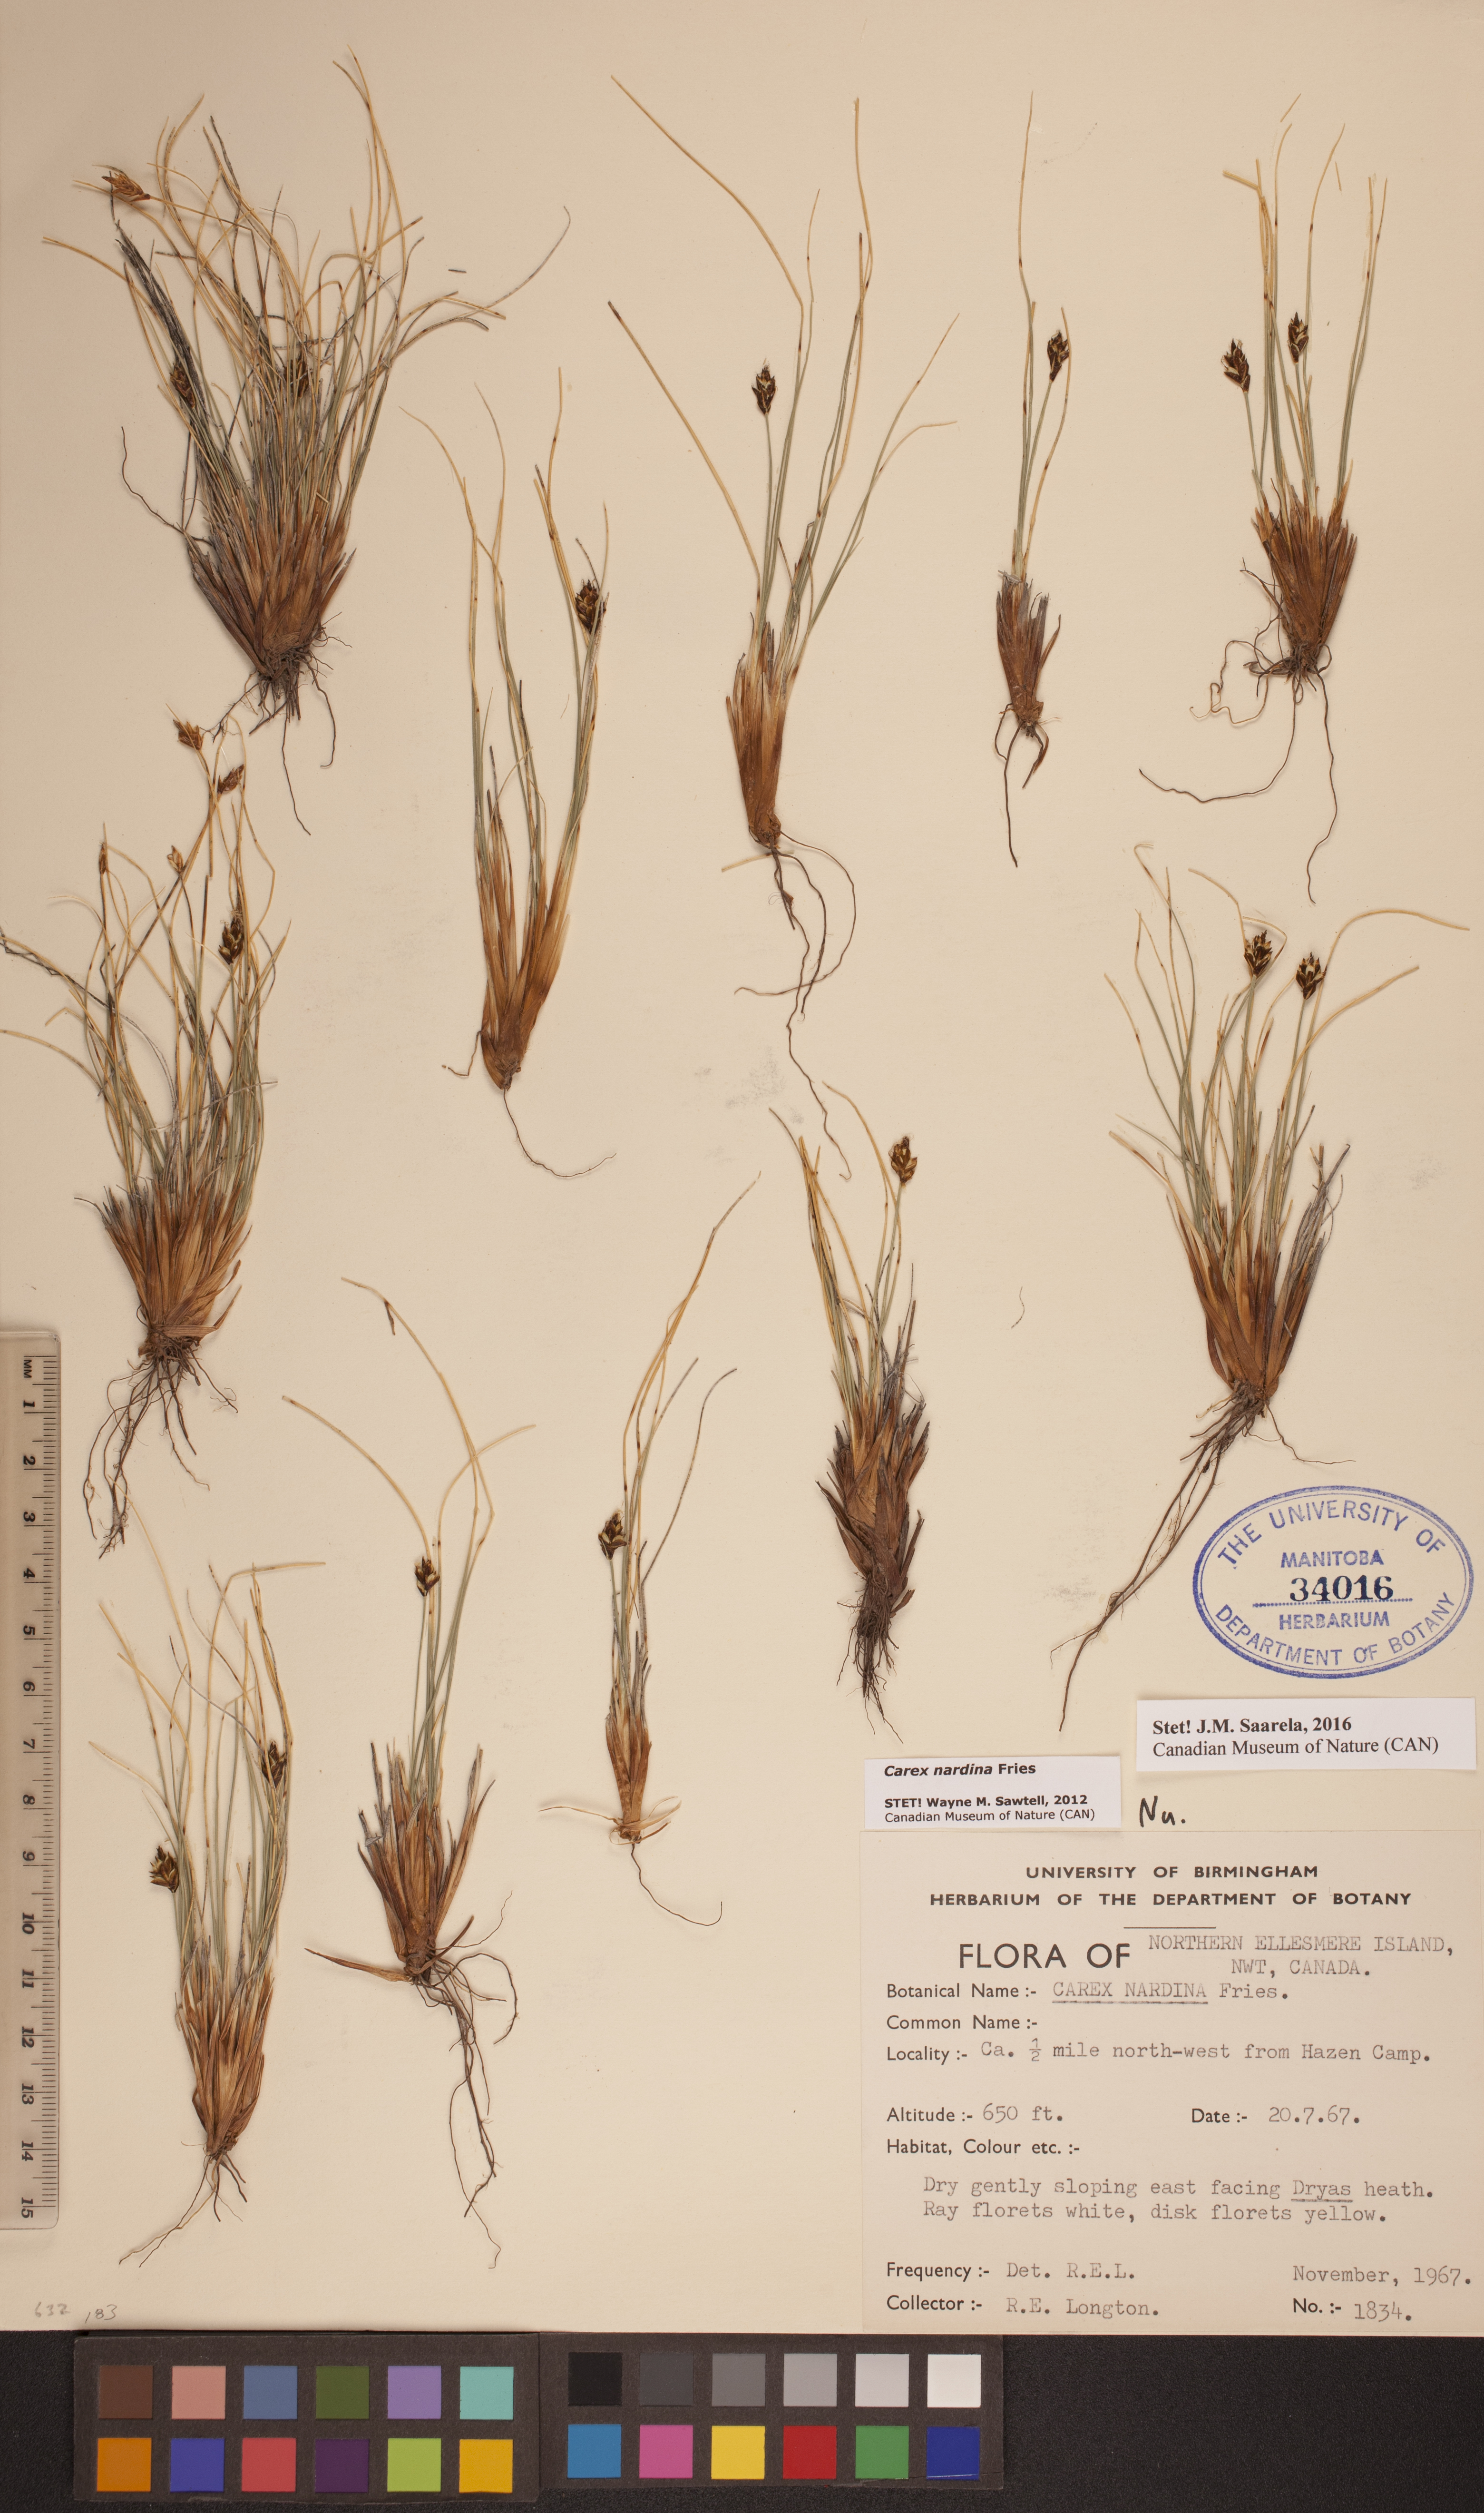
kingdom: Plantae
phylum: Tracheophyta
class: Liliopsida
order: Poales
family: Cyperaceae
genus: Carex
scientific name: Carex nardina
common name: Nard sedge
